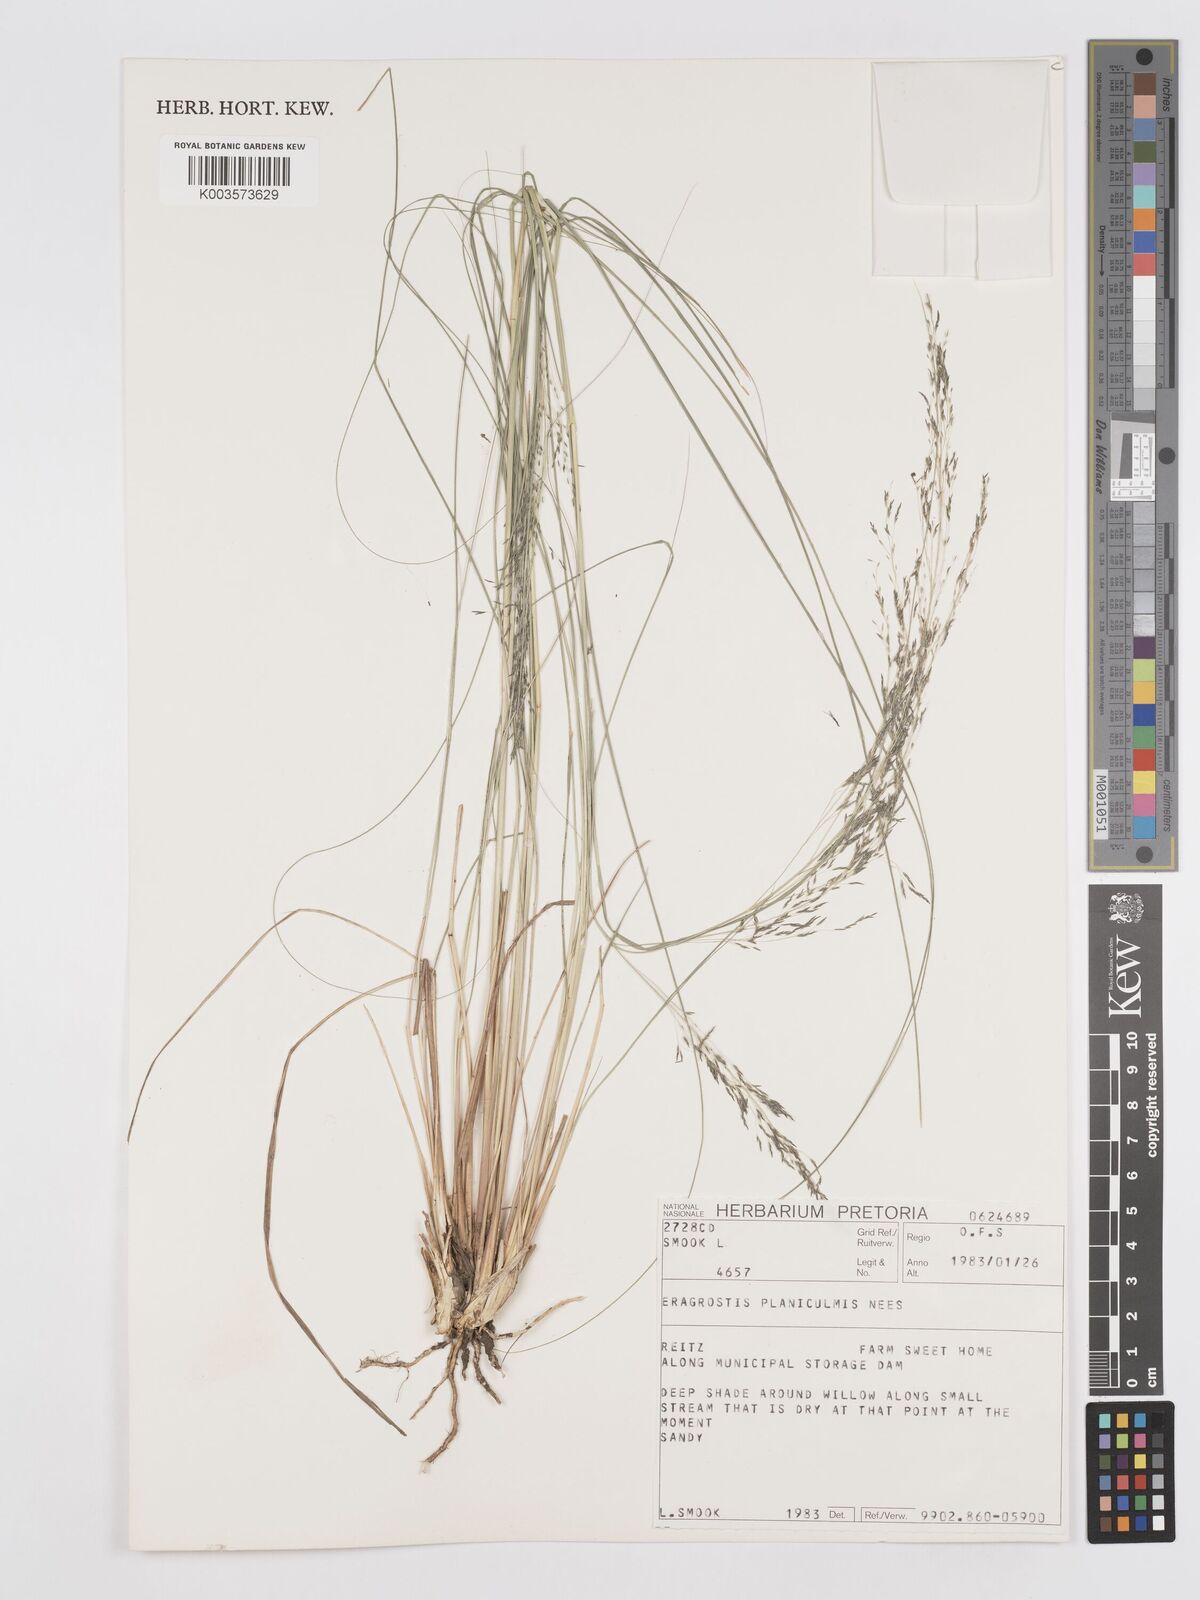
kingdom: Plantae
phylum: Tracheophyta
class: Liliopsida
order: Poales
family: Poaceae
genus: Eragrostis
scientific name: Eragrostis planiculmis
